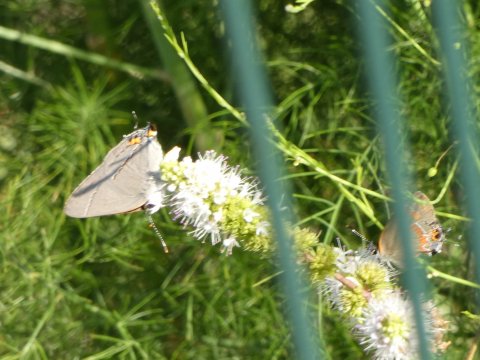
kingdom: Animalia
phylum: Arthropoda
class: Insecta
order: Lepidoptera
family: Lycaenidae
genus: Calycopis
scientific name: Calycopis cecrops
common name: Red-banded Hairstreak
